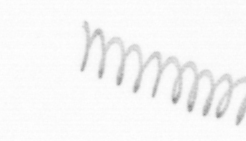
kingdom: Chromista
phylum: Ochrophyta
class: Bacillariophyceae
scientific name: Bacillariophyceae
